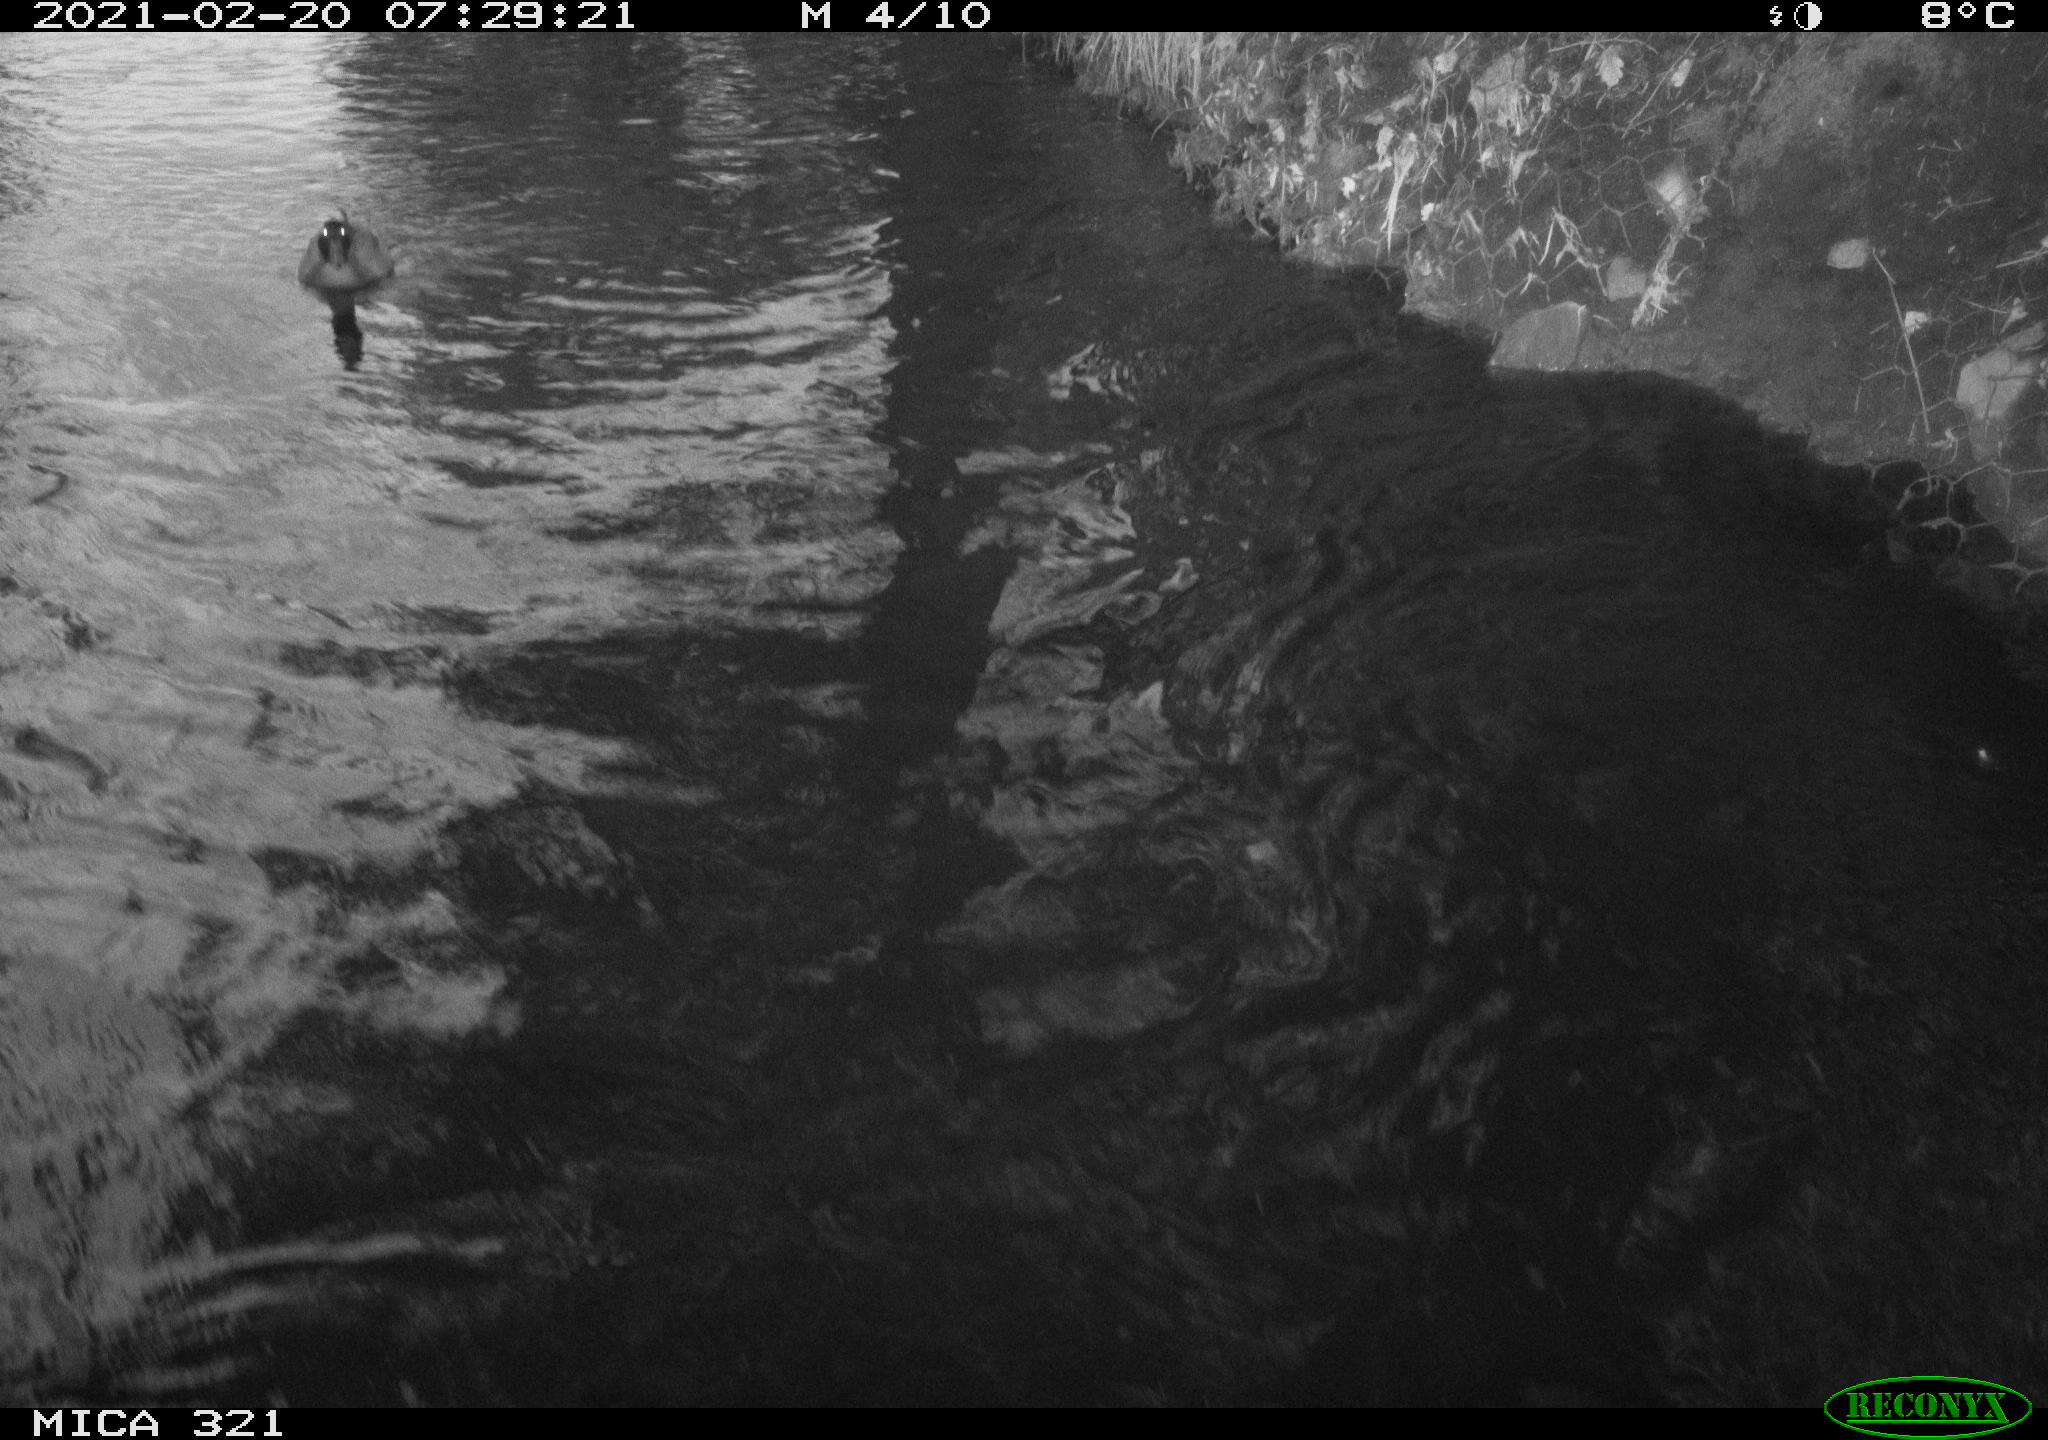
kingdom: Animalia
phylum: Chordata
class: Aves
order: Gruiformes
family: Rallidae
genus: Gallinula
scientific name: Gallinula chloropus
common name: Common moorhen
